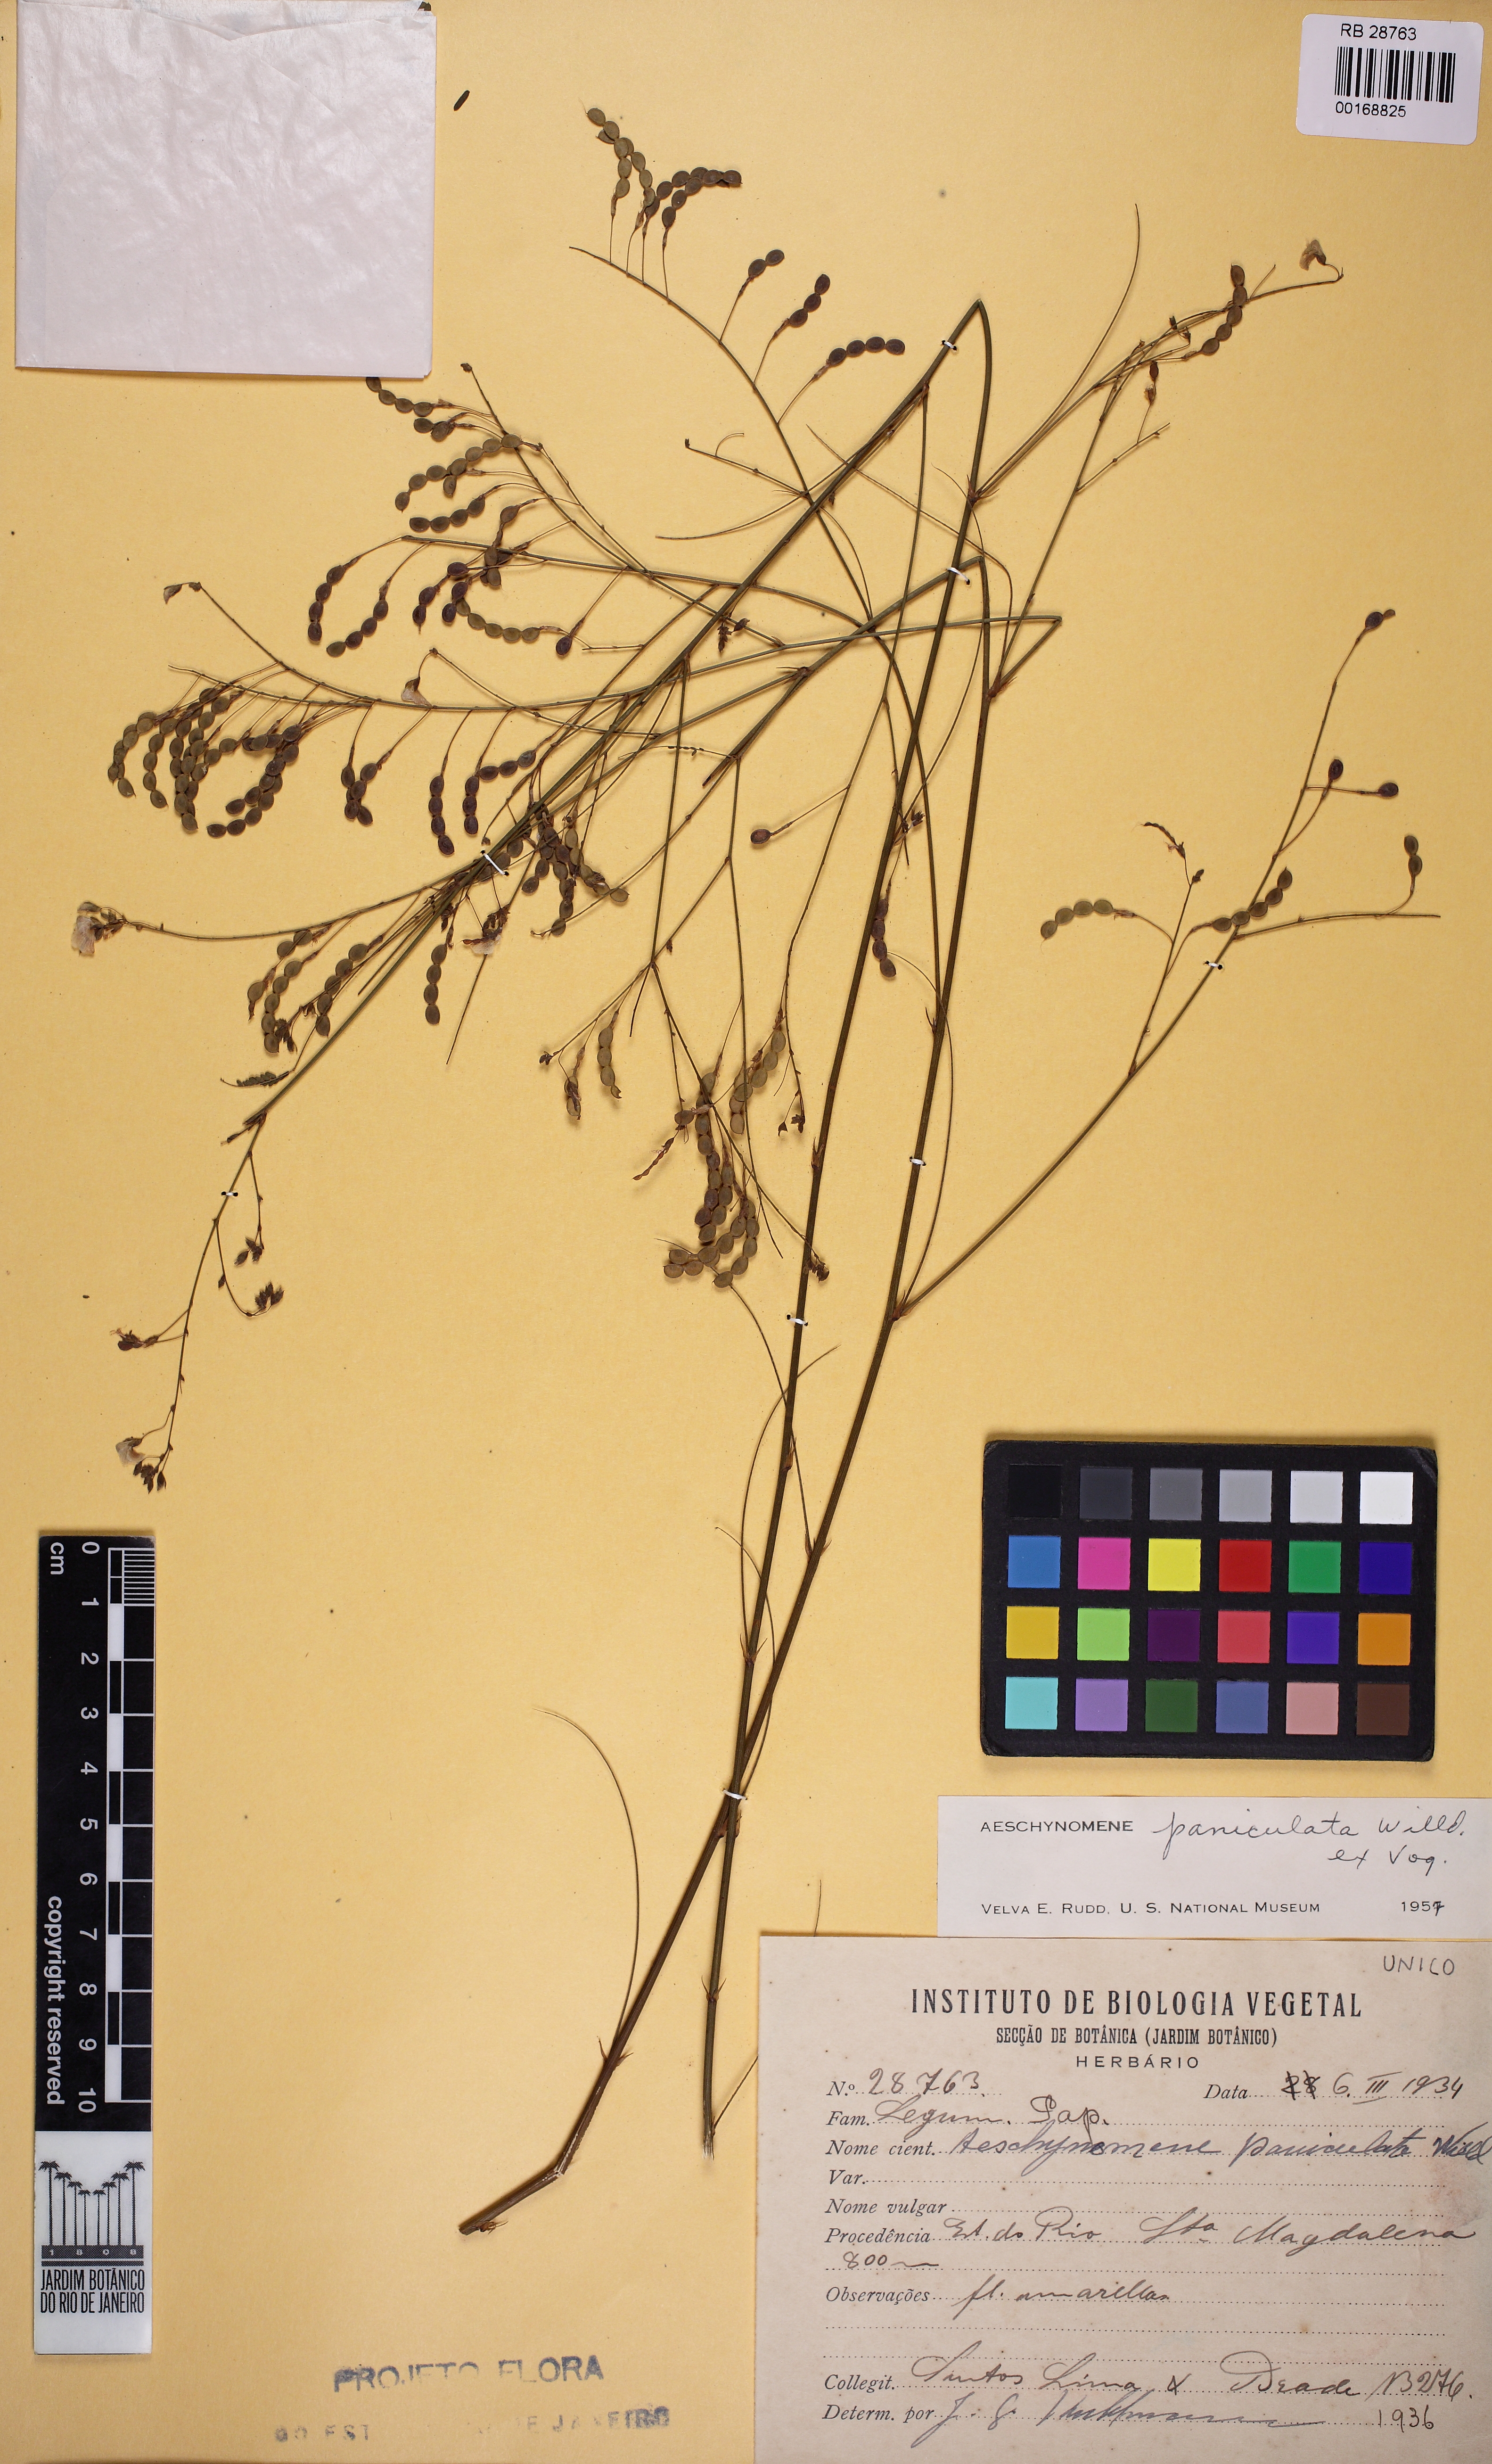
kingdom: Plantae
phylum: Tracheophyta
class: Magnoliopsida
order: Fabales
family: Fabaceae
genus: Ctenodon
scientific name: Ctenodon paniculatus
